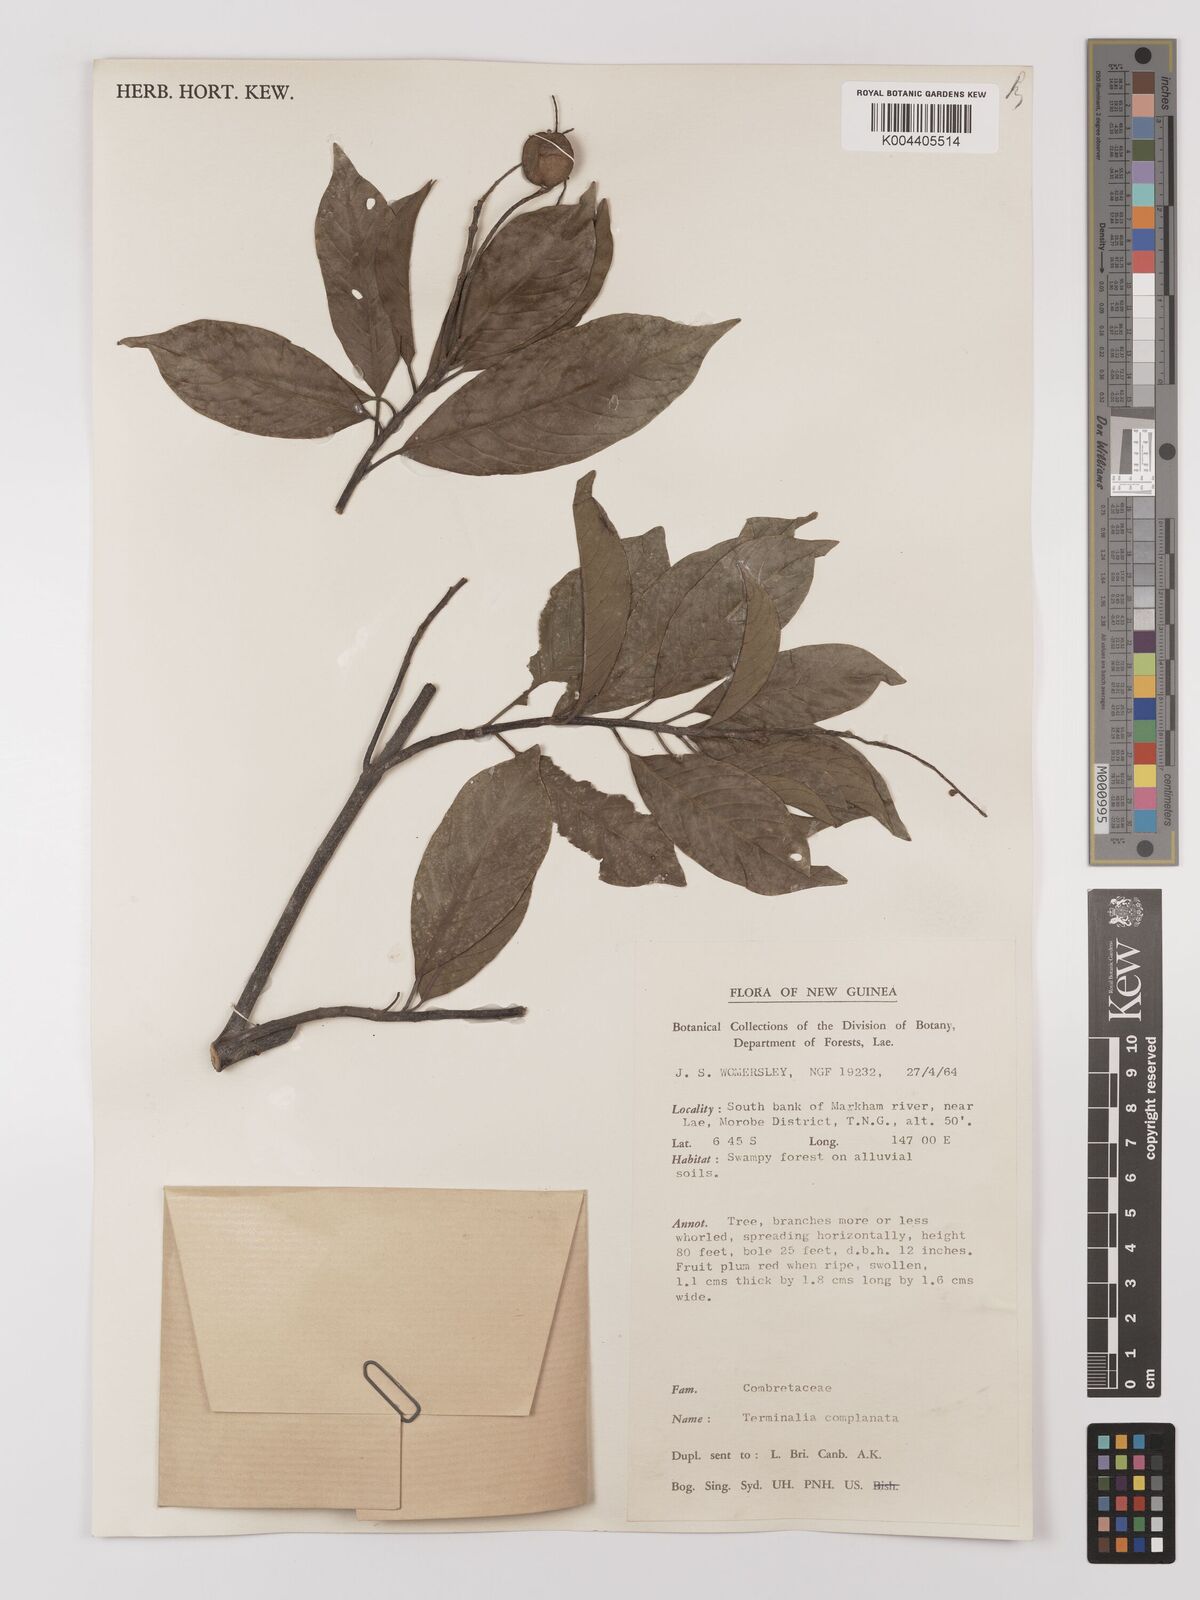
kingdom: Plantae
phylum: Tracheophyta
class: Magnoliopsida
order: Myrtales
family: Combretaceae
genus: Terminalia
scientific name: Terminalia complanata
